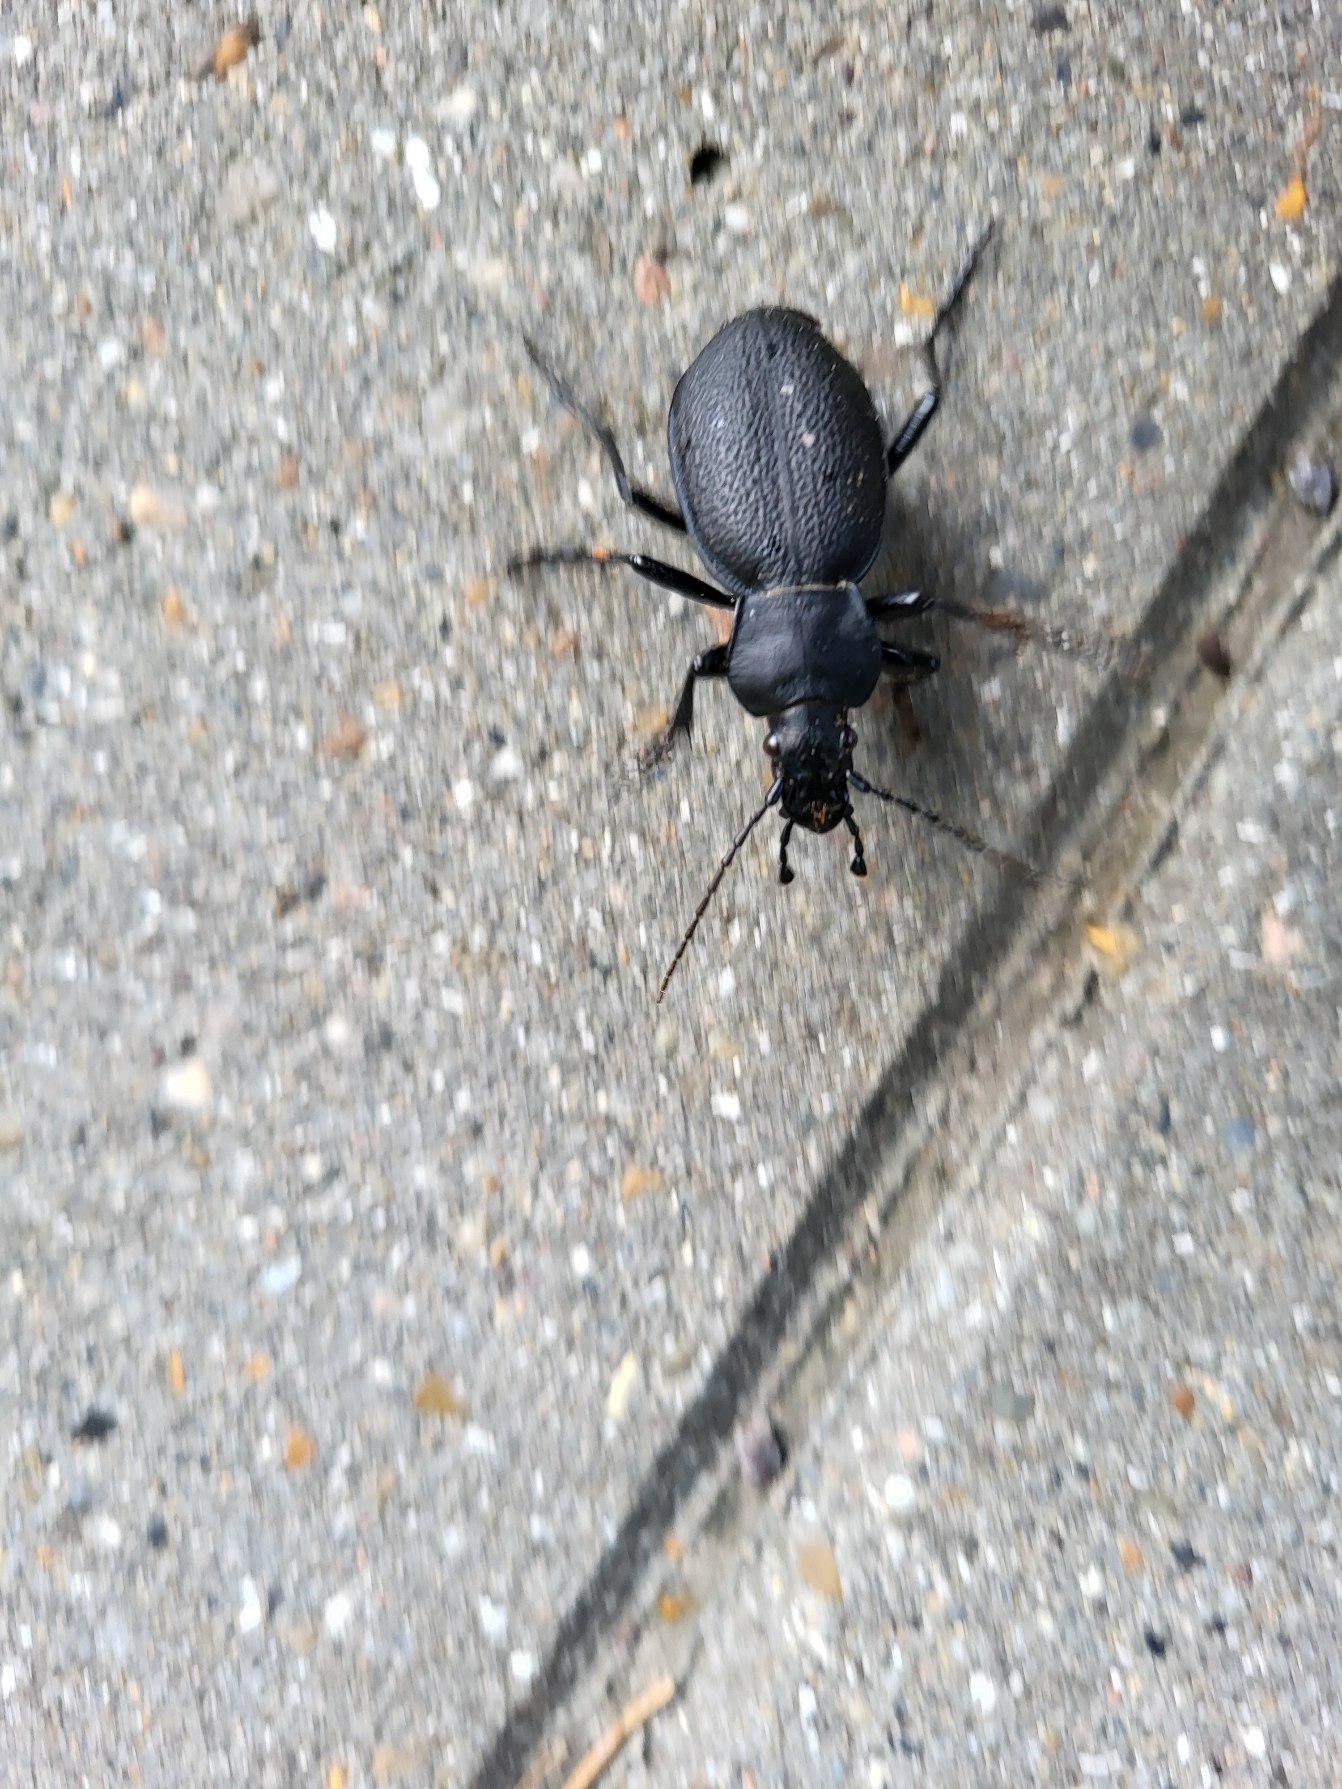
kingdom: Animalia
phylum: Arthropoda
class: Insecta
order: Coleoptera
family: Carabidae
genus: Carabus
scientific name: Carabus coriaceus
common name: Læderløber
